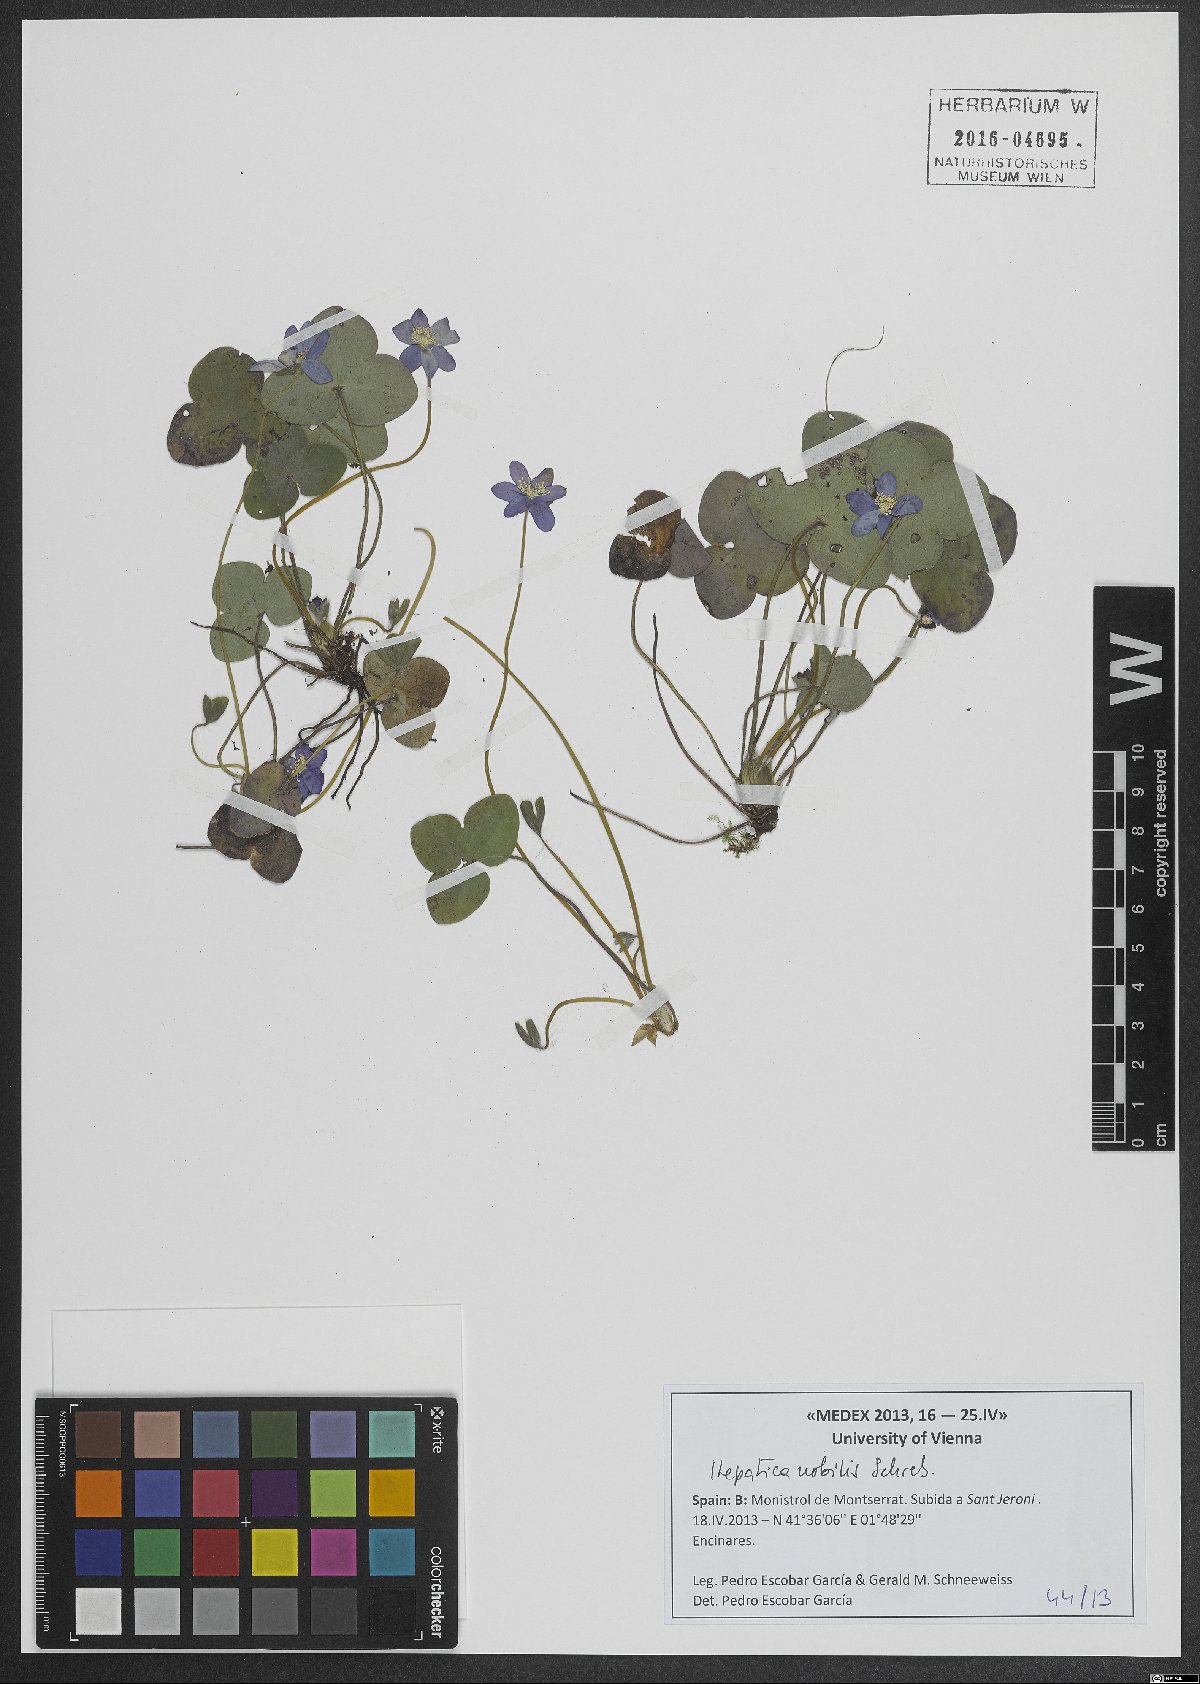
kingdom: Plantae
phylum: Tracheophyta
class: Magnoliopsida
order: Ranunculales
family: Ranunculaceae
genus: Hepatica
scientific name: Hepatica nobilis
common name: Liverleaf
